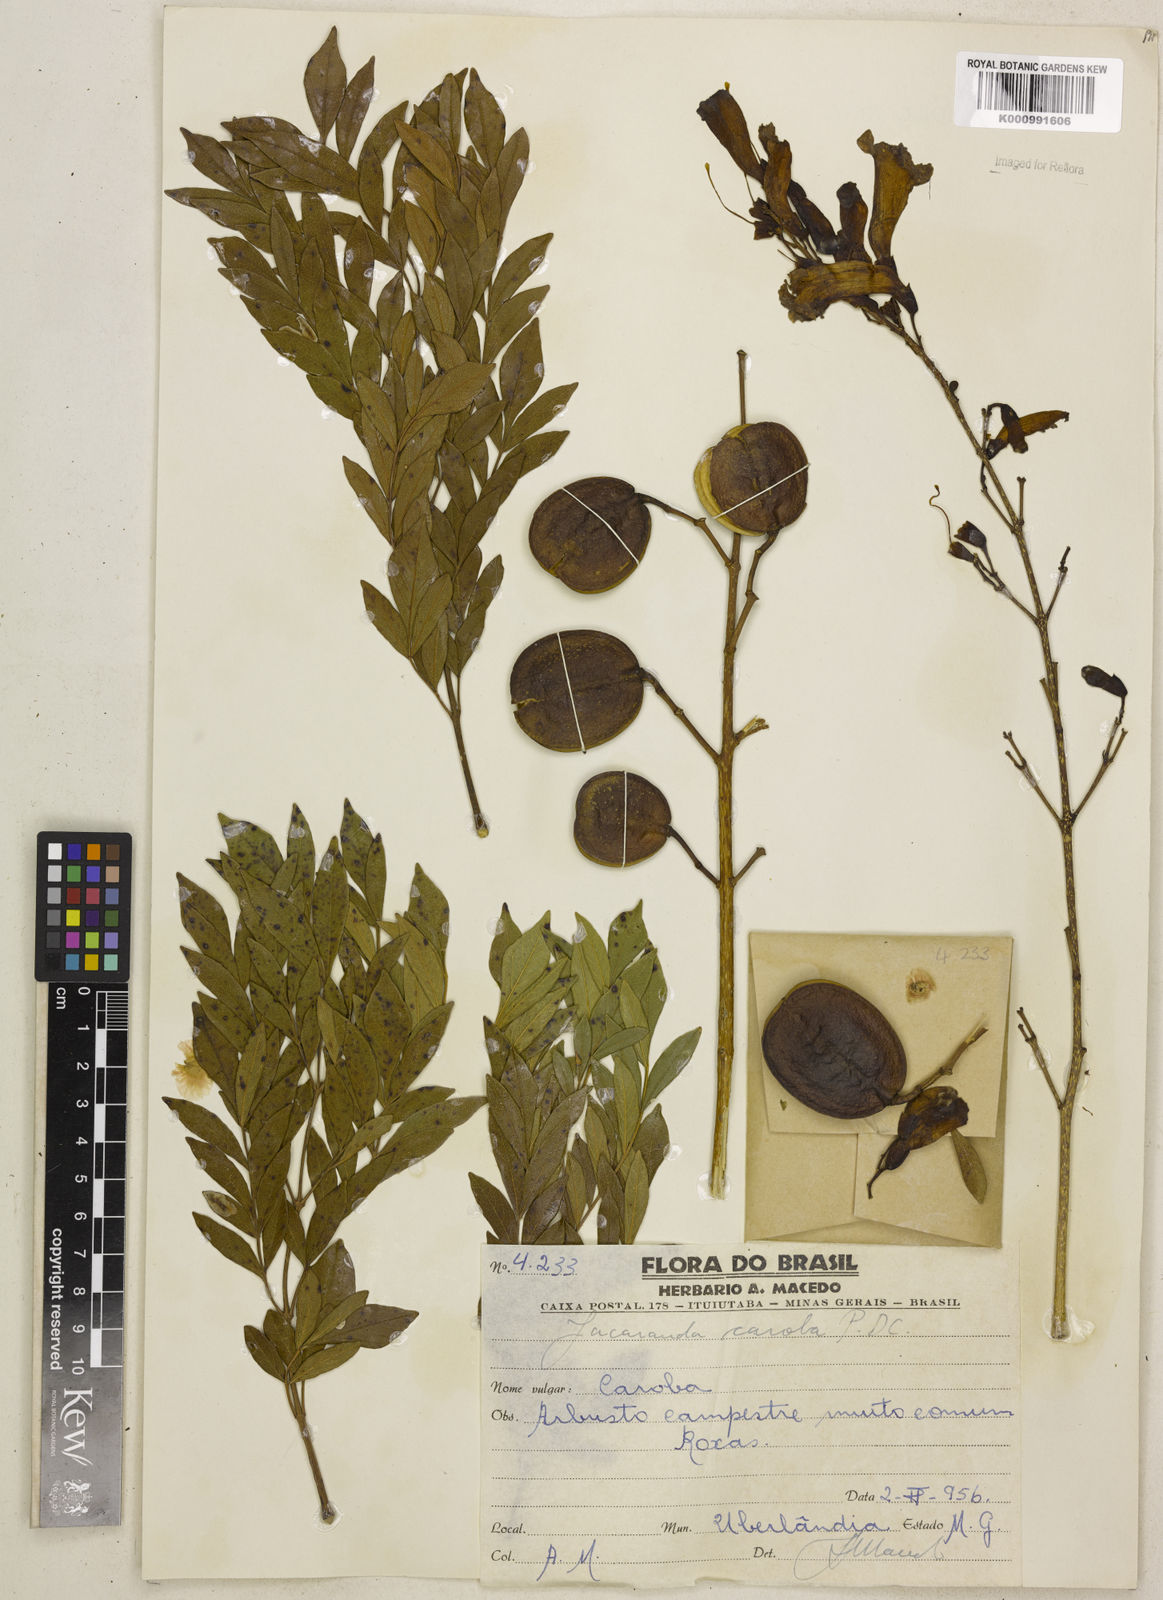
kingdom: Plantae
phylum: Tracheophyta
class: Magnoliopsida
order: Lamiales
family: Bignoniaceae
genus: Jacaranda
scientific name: Jacaranda caroba
